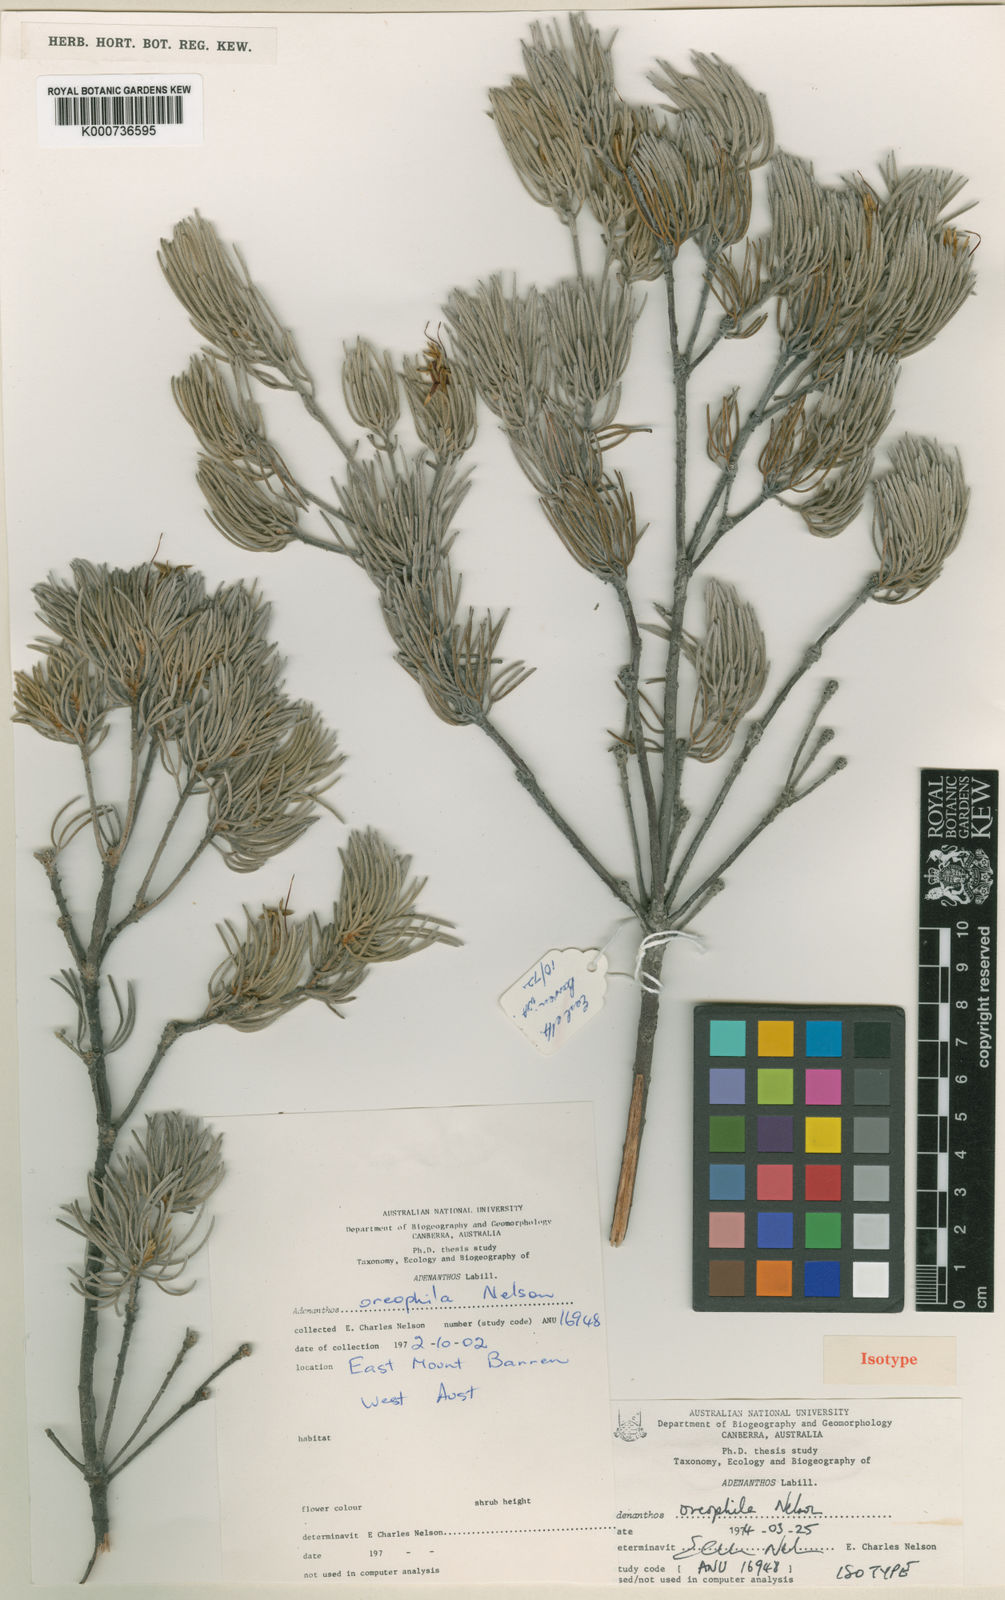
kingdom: Plantae
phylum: Tracheophyta
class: Magnoliopsida
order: Proteales
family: Proteaceae
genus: Adenanthos
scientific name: Adenanthos oreophilus
